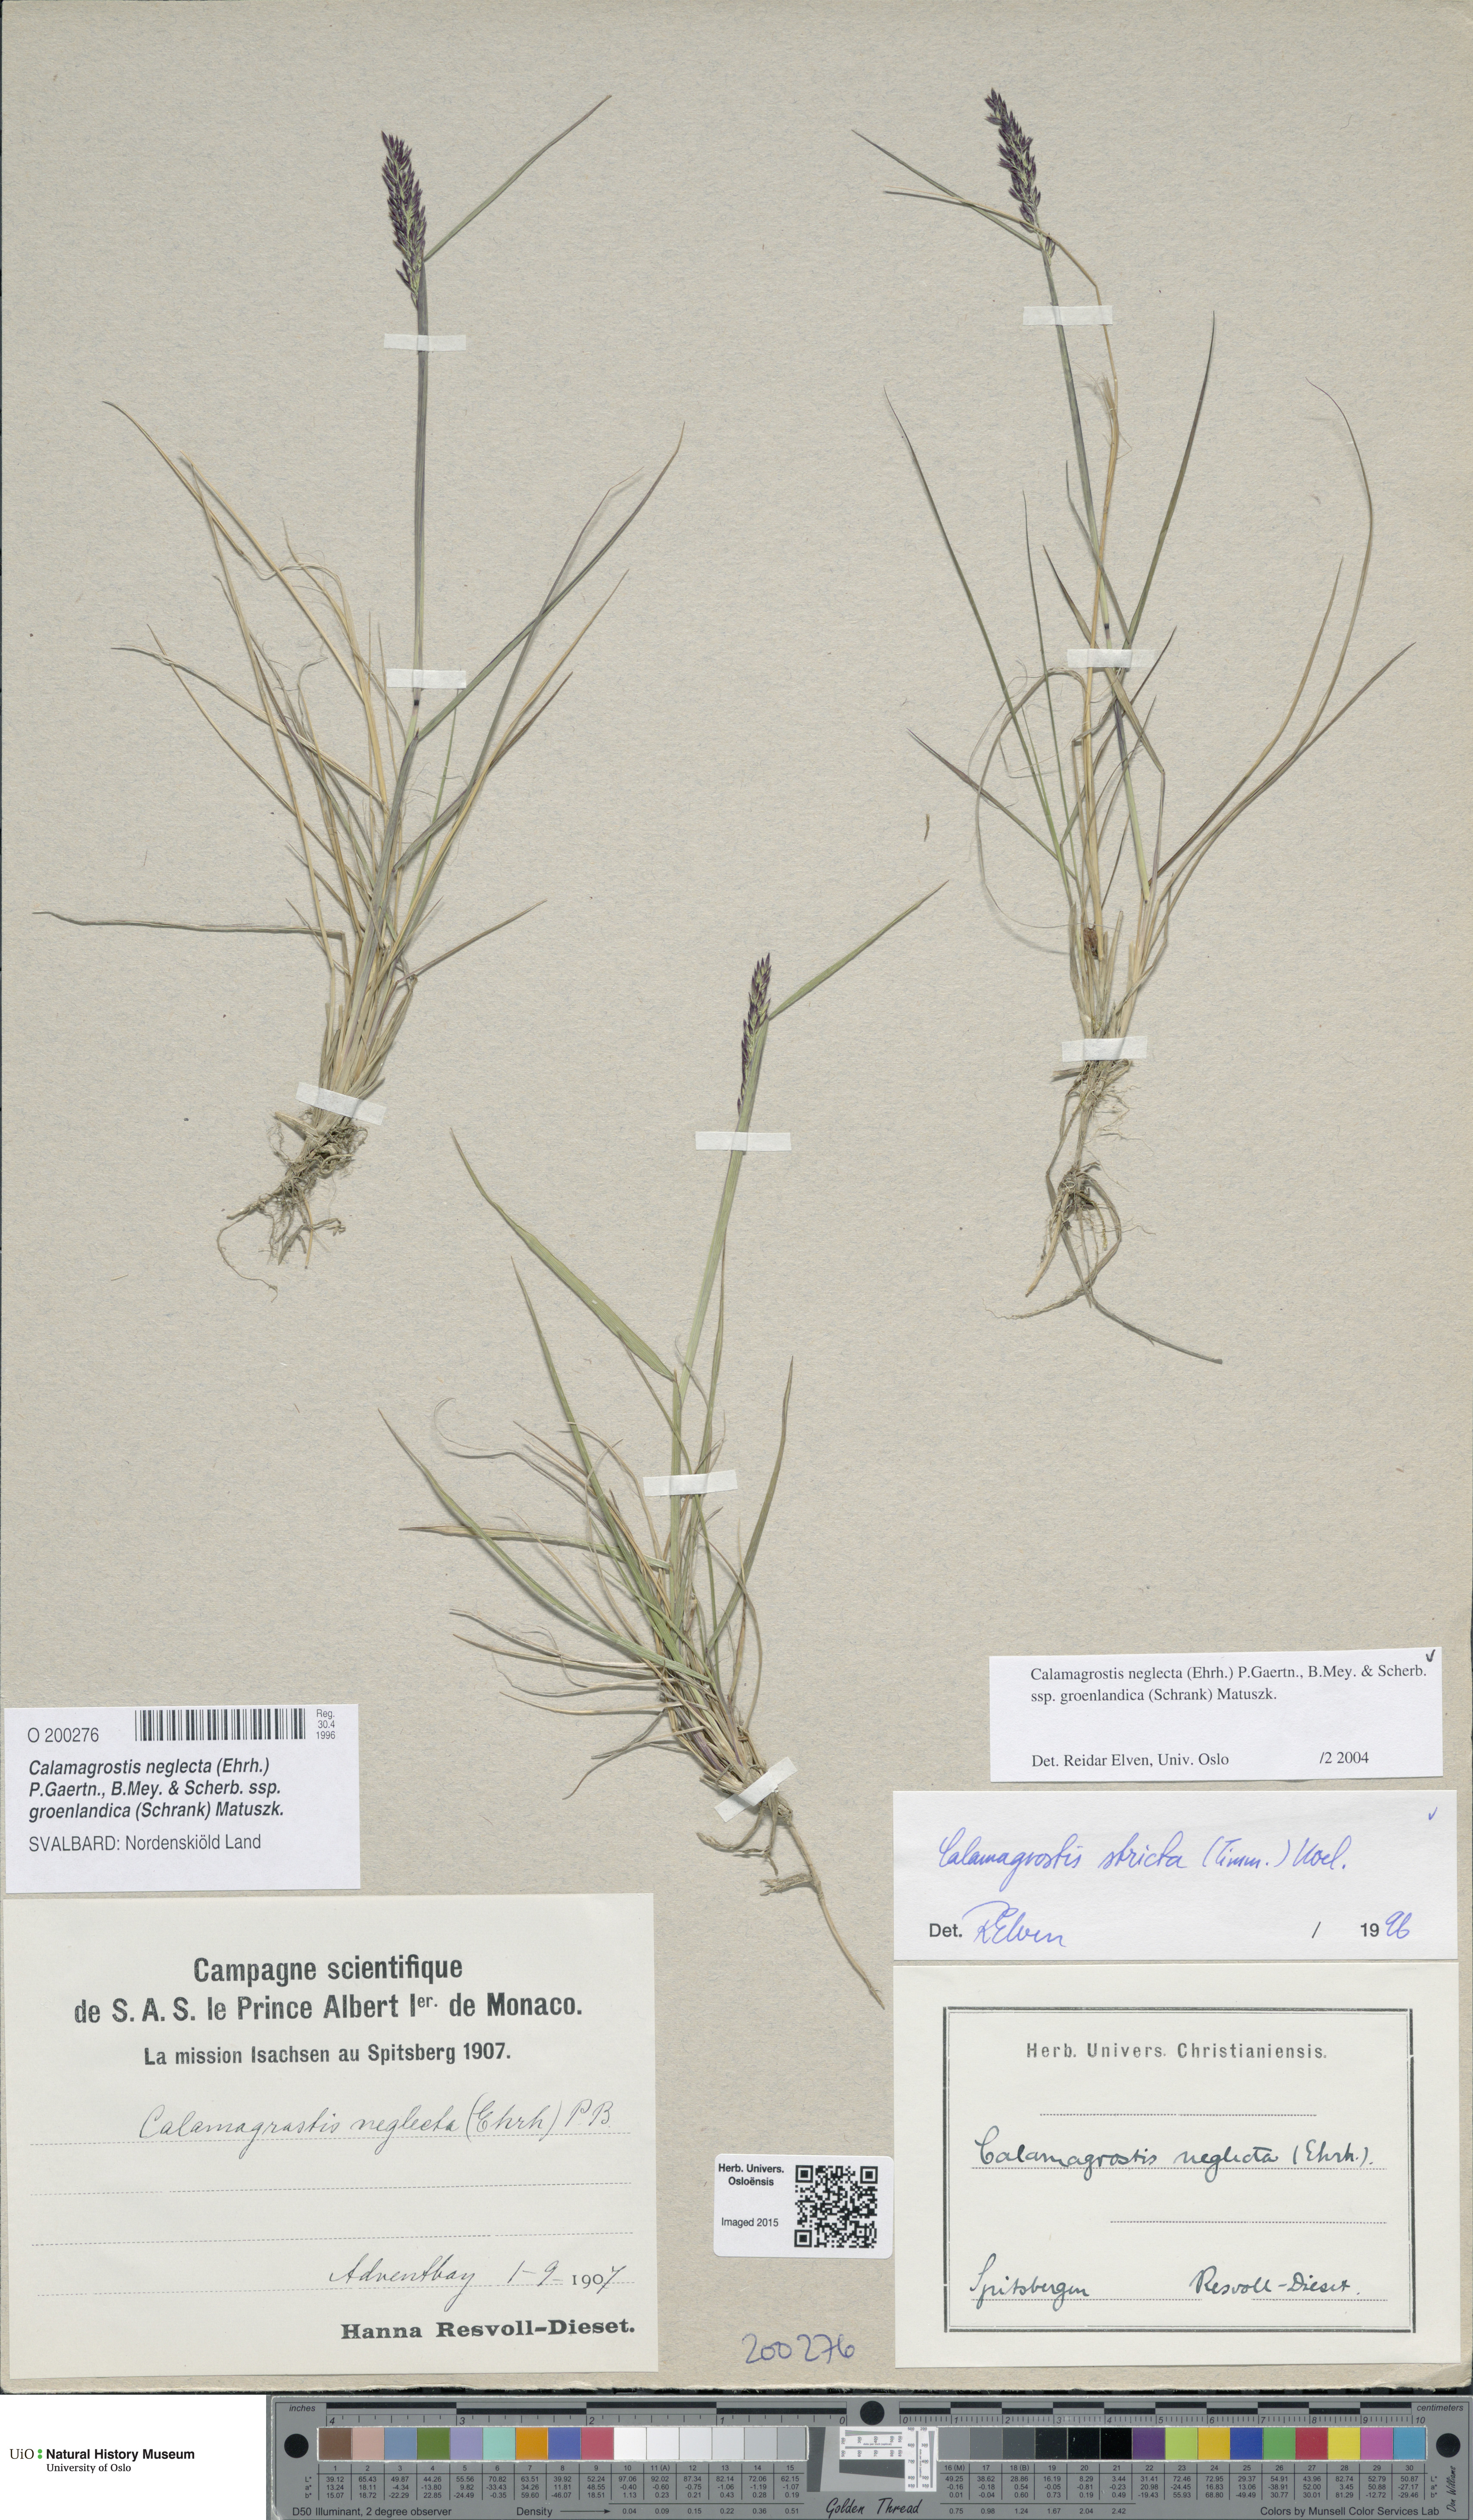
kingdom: Plantae
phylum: Tracheophyta
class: Liliopsida
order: Poales
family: Poaceae
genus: Calamagrostis
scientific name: Calamagrostis stricta
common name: Narrow small-reed
